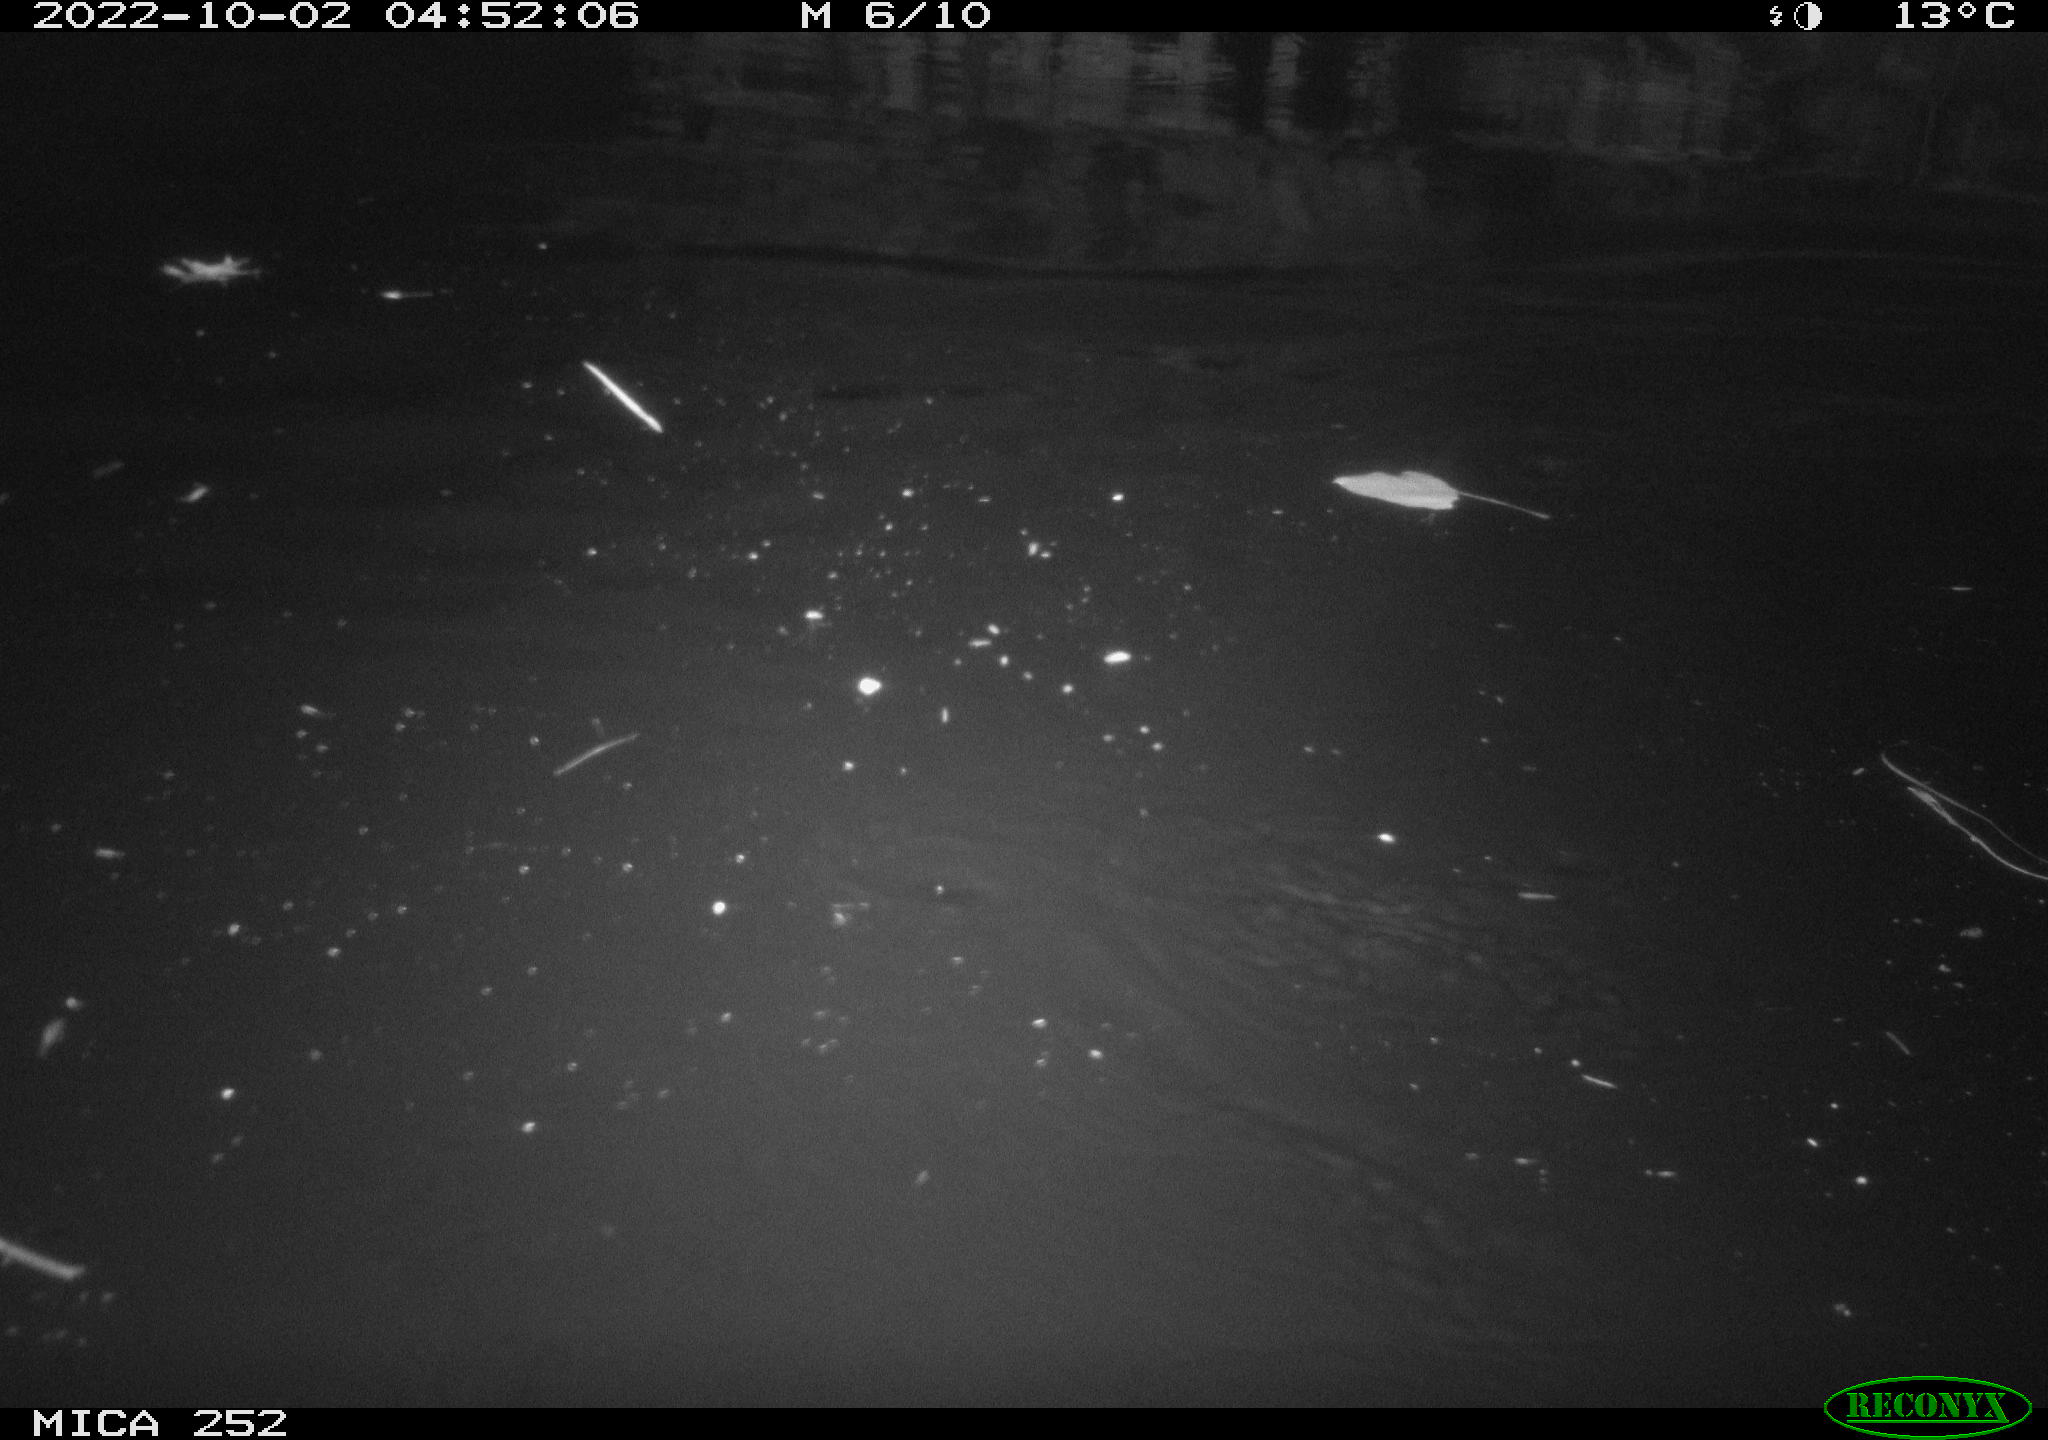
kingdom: Animalia
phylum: Chordata
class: Mammalia
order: Rodentia
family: Castoridae
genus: Castor
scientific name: Castor fiber
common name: Eurasian beaver
